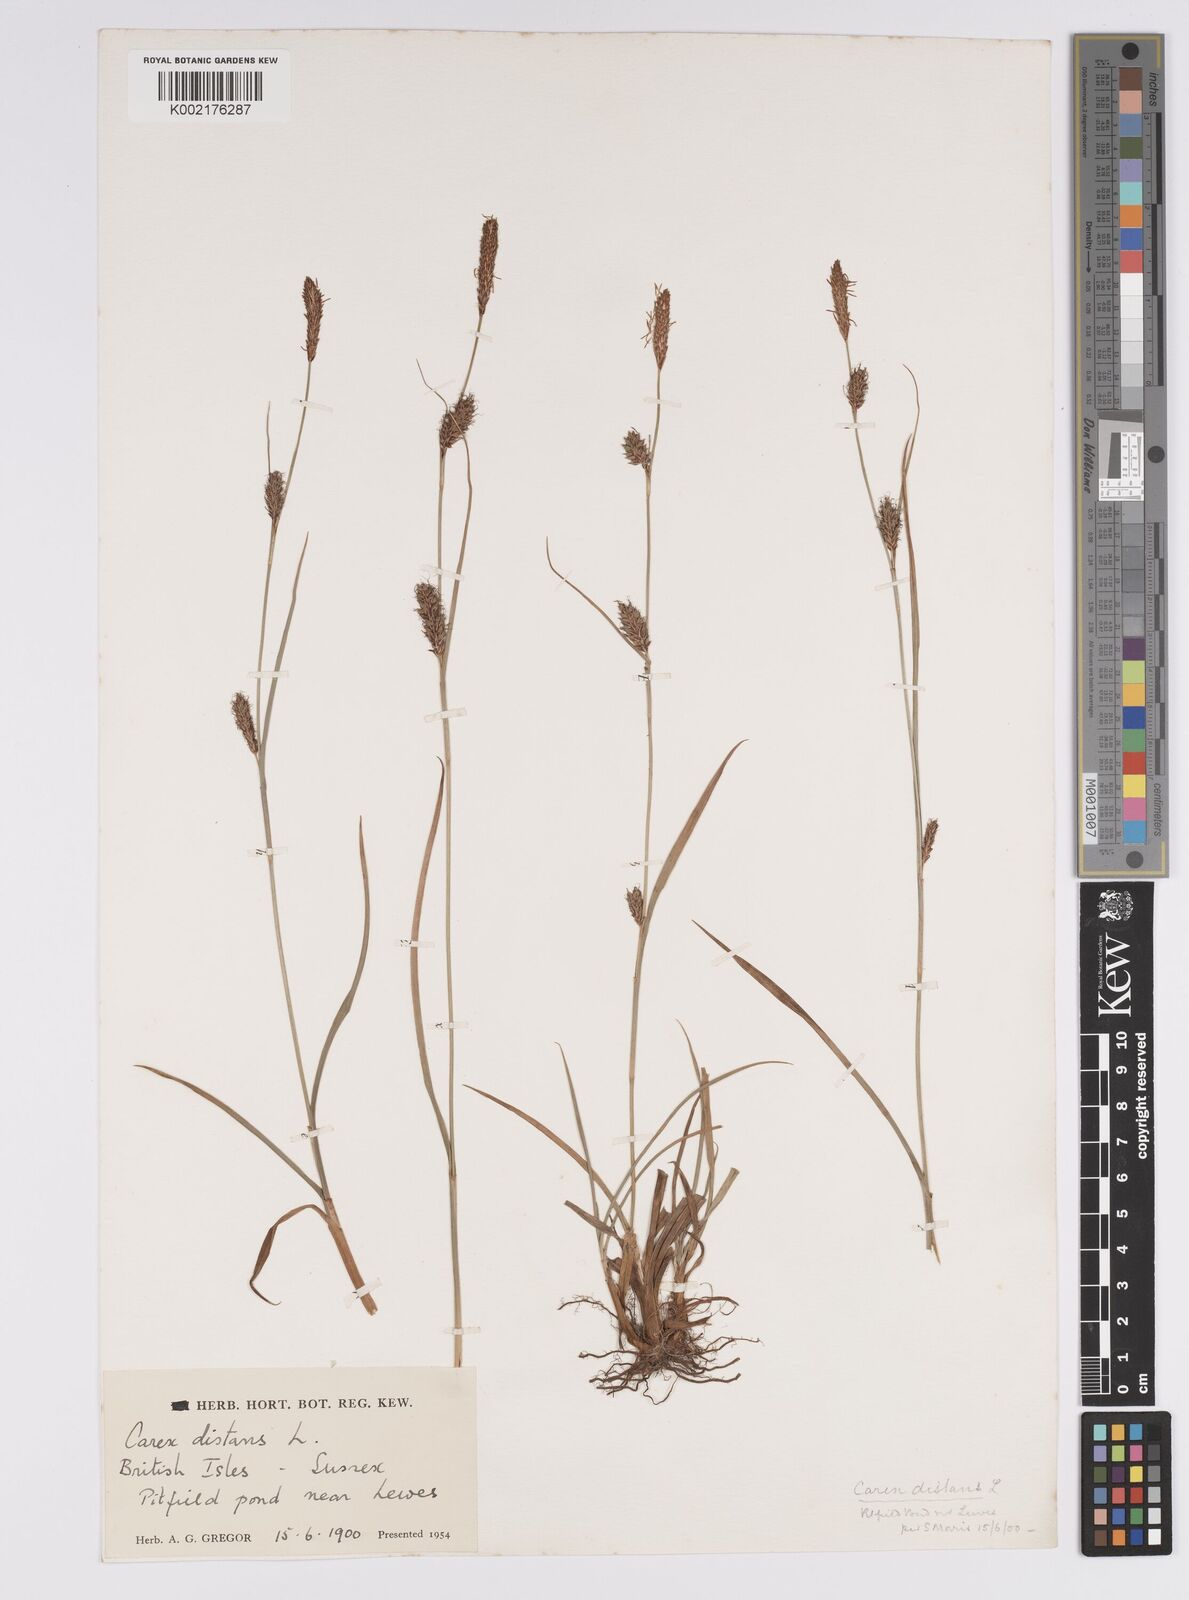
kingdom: Plantae
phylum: Tracheophyta
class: Liliopsida
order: Poales
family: Cyperaceae
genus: Carex
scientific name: Carex distans
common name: Distant sedge
